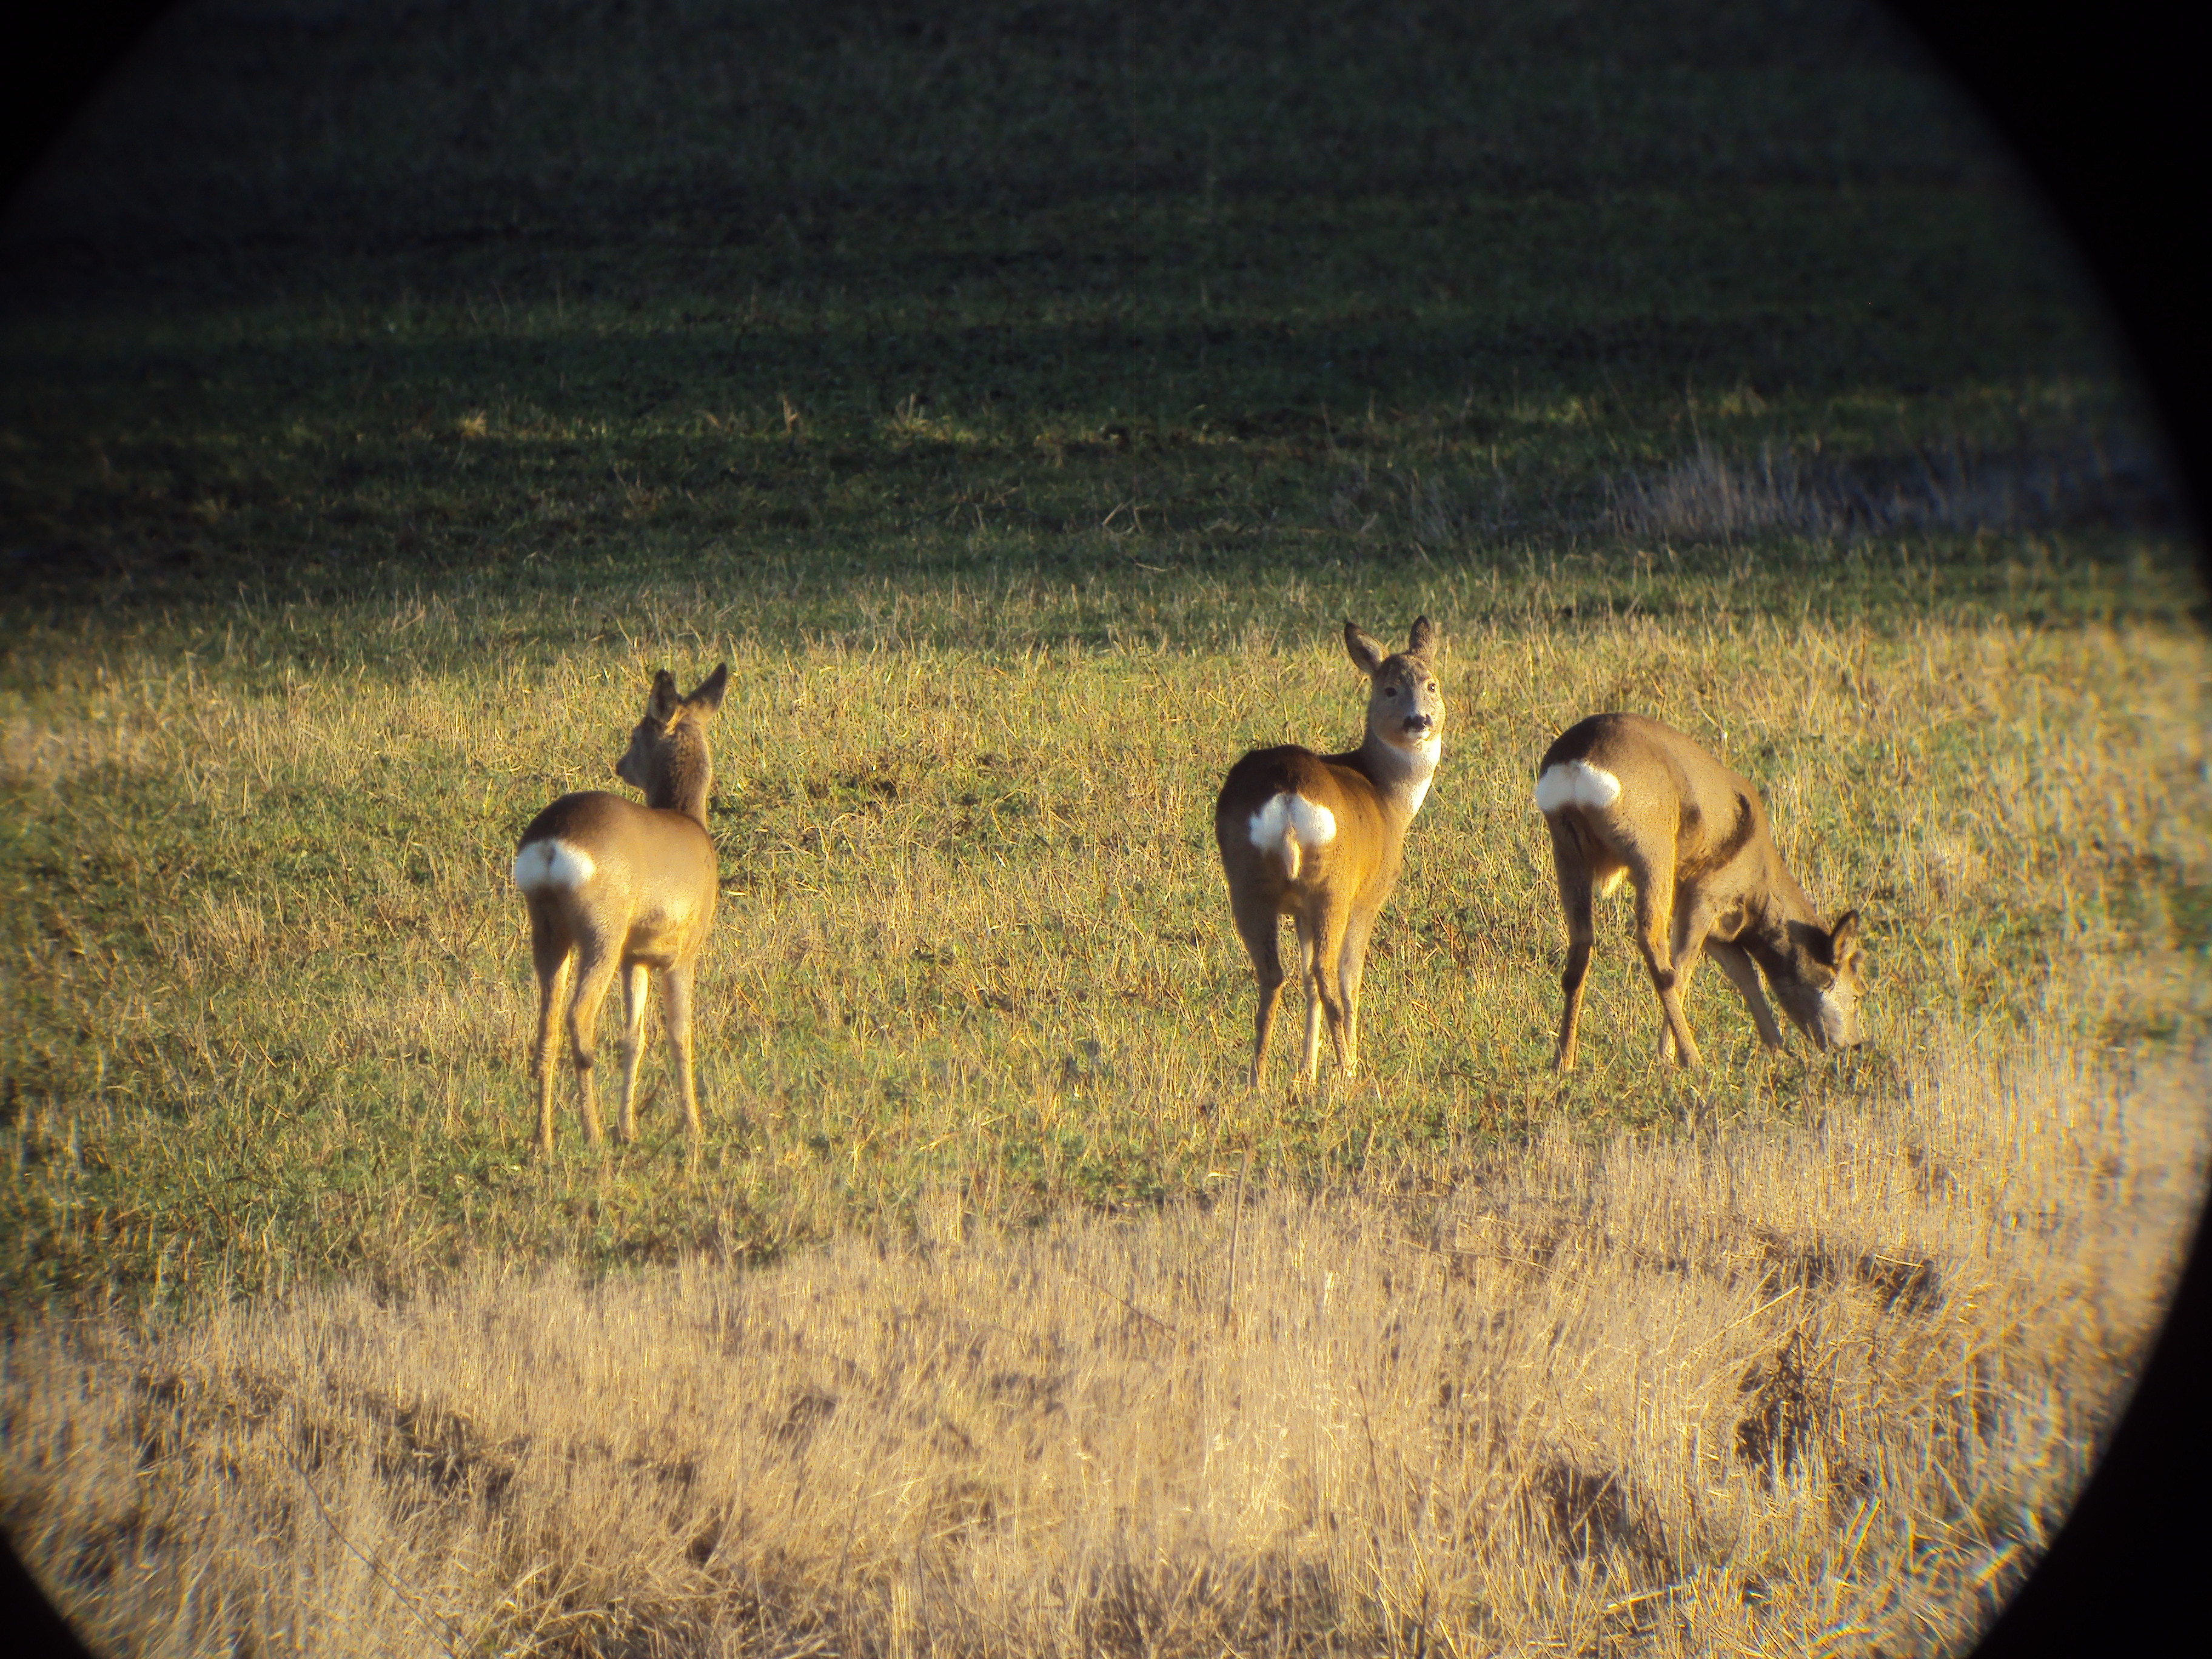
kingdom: Animalia
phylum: Chordata
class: Mammalia
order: Artiodactyla
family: Cervidae
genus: Capreolus
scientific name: Capreolus capreolus
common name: Western roe deer
